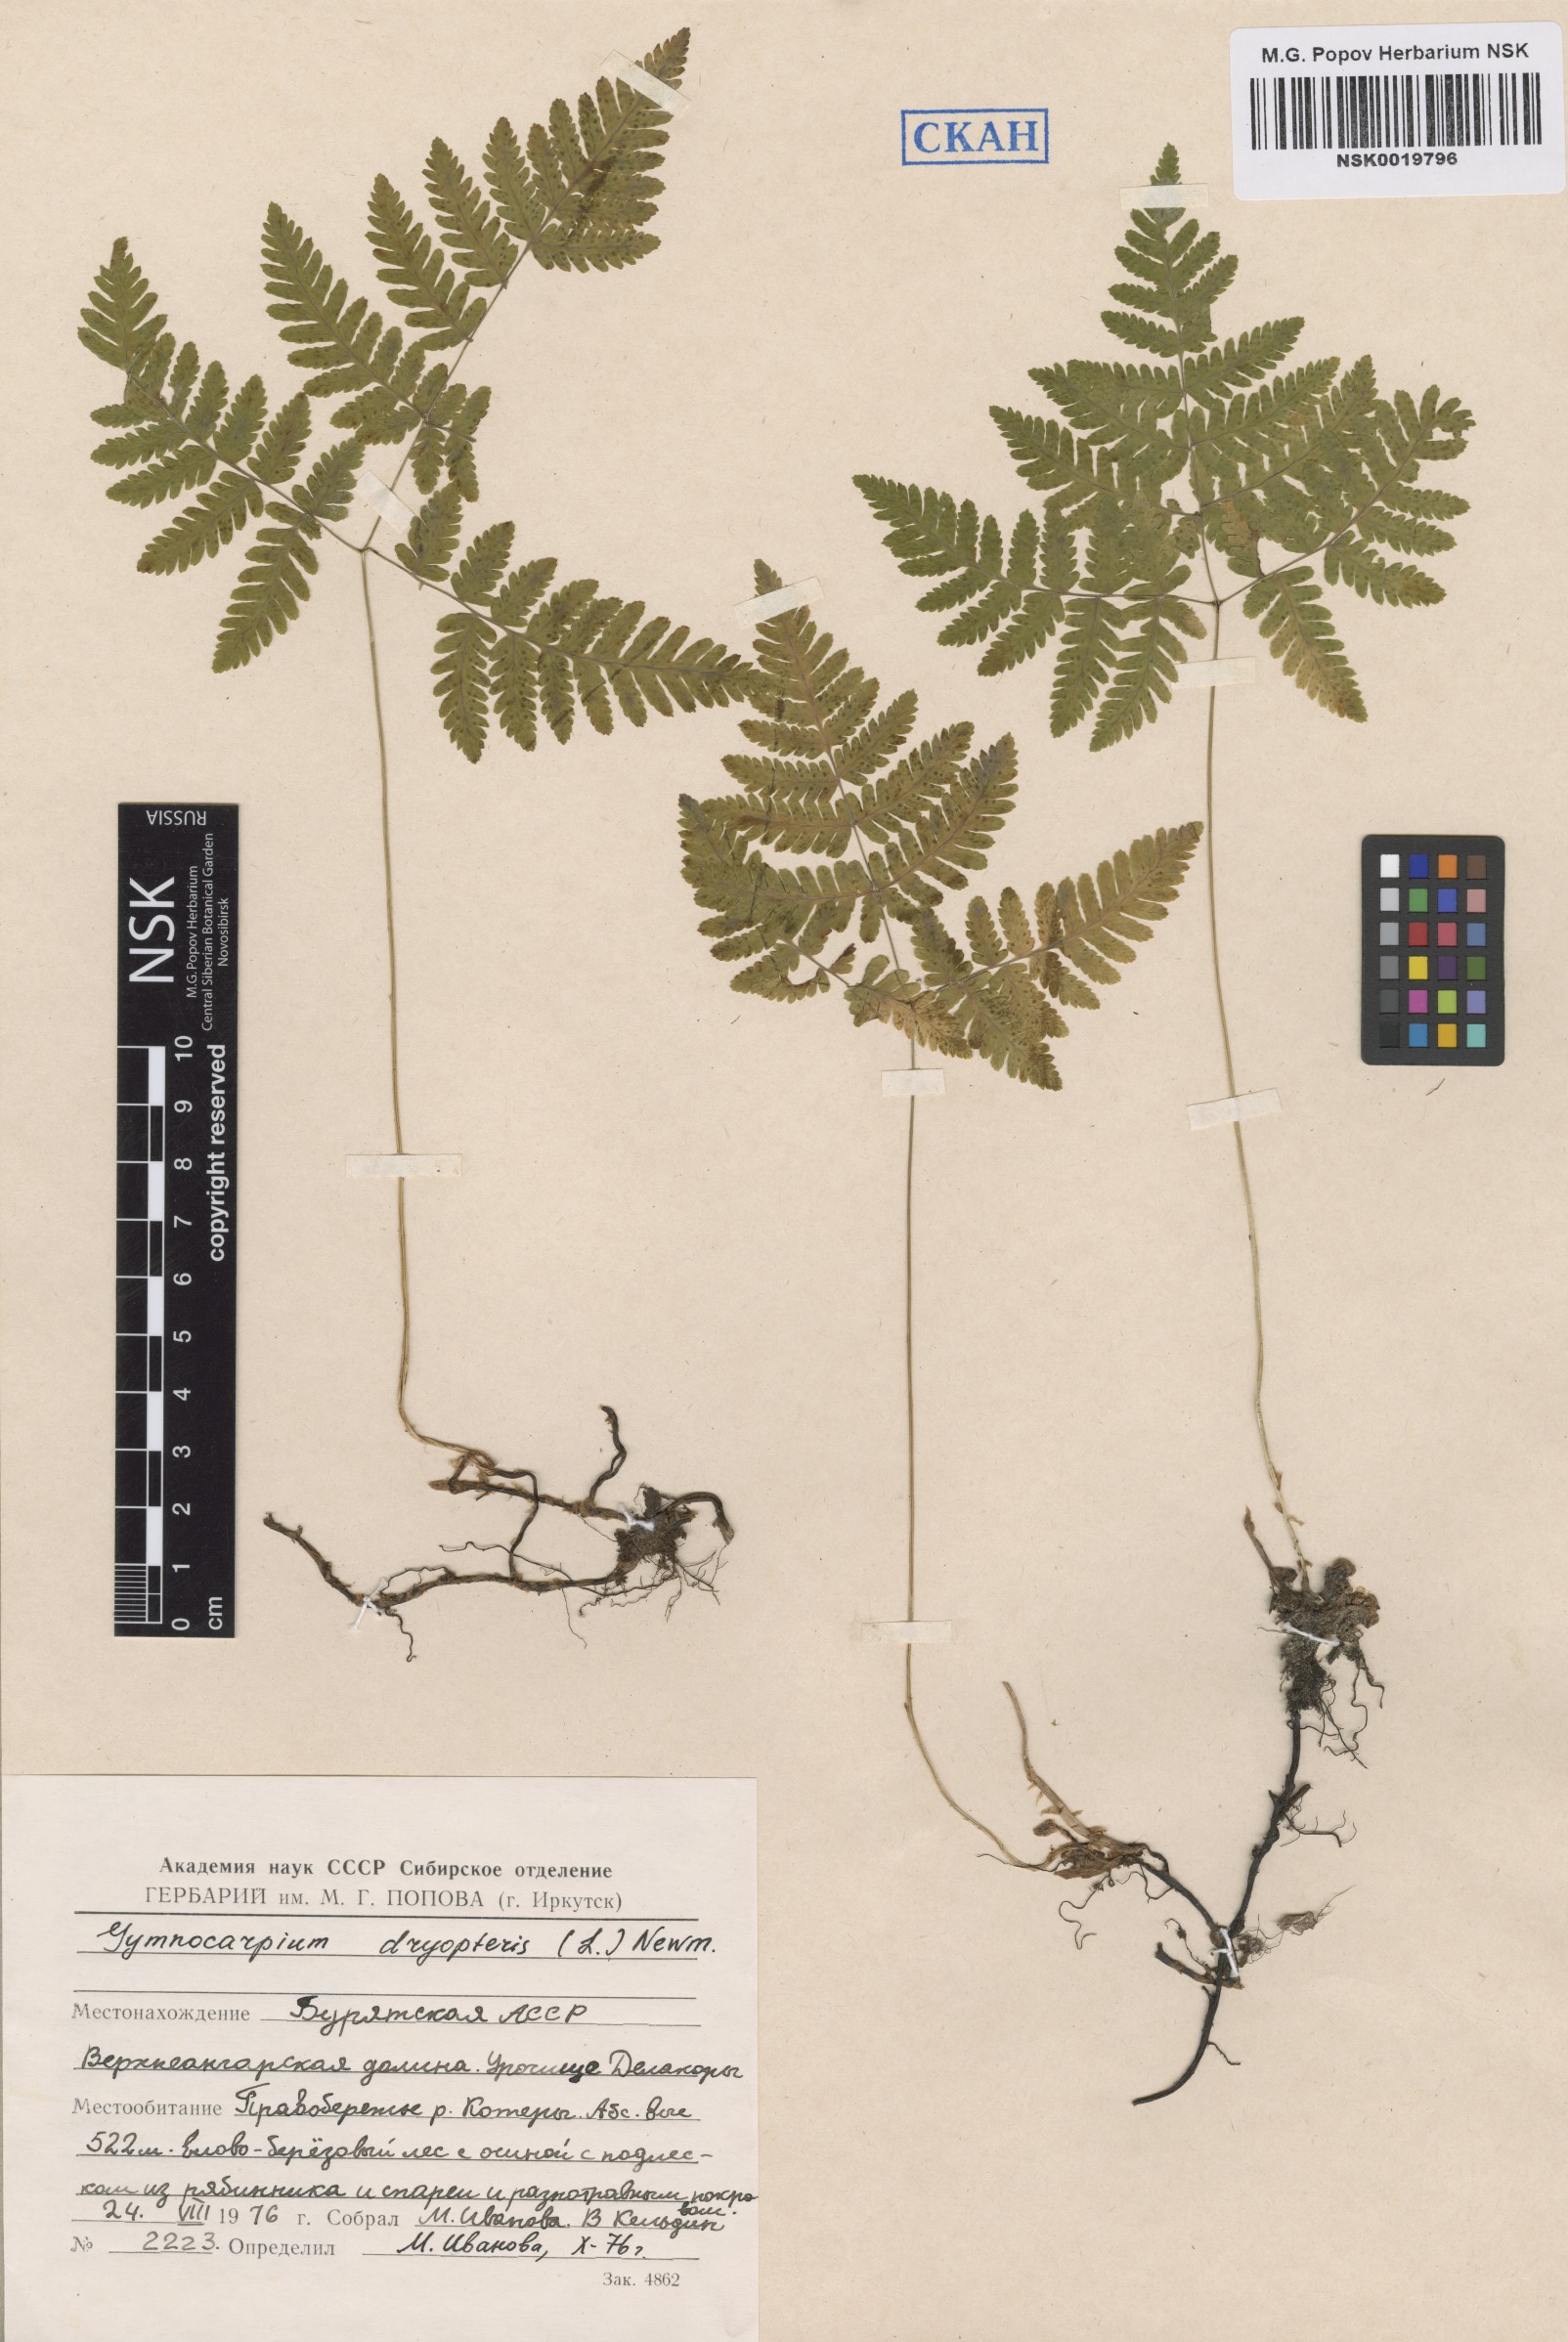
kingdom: Plantae
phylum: Tracheophyta
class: Polypodiopsida
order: Polypodiales
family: Cystopteridaceae
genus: Gymnocarpium
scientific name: Gymnocarpium dryopteris
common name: Oak fern
